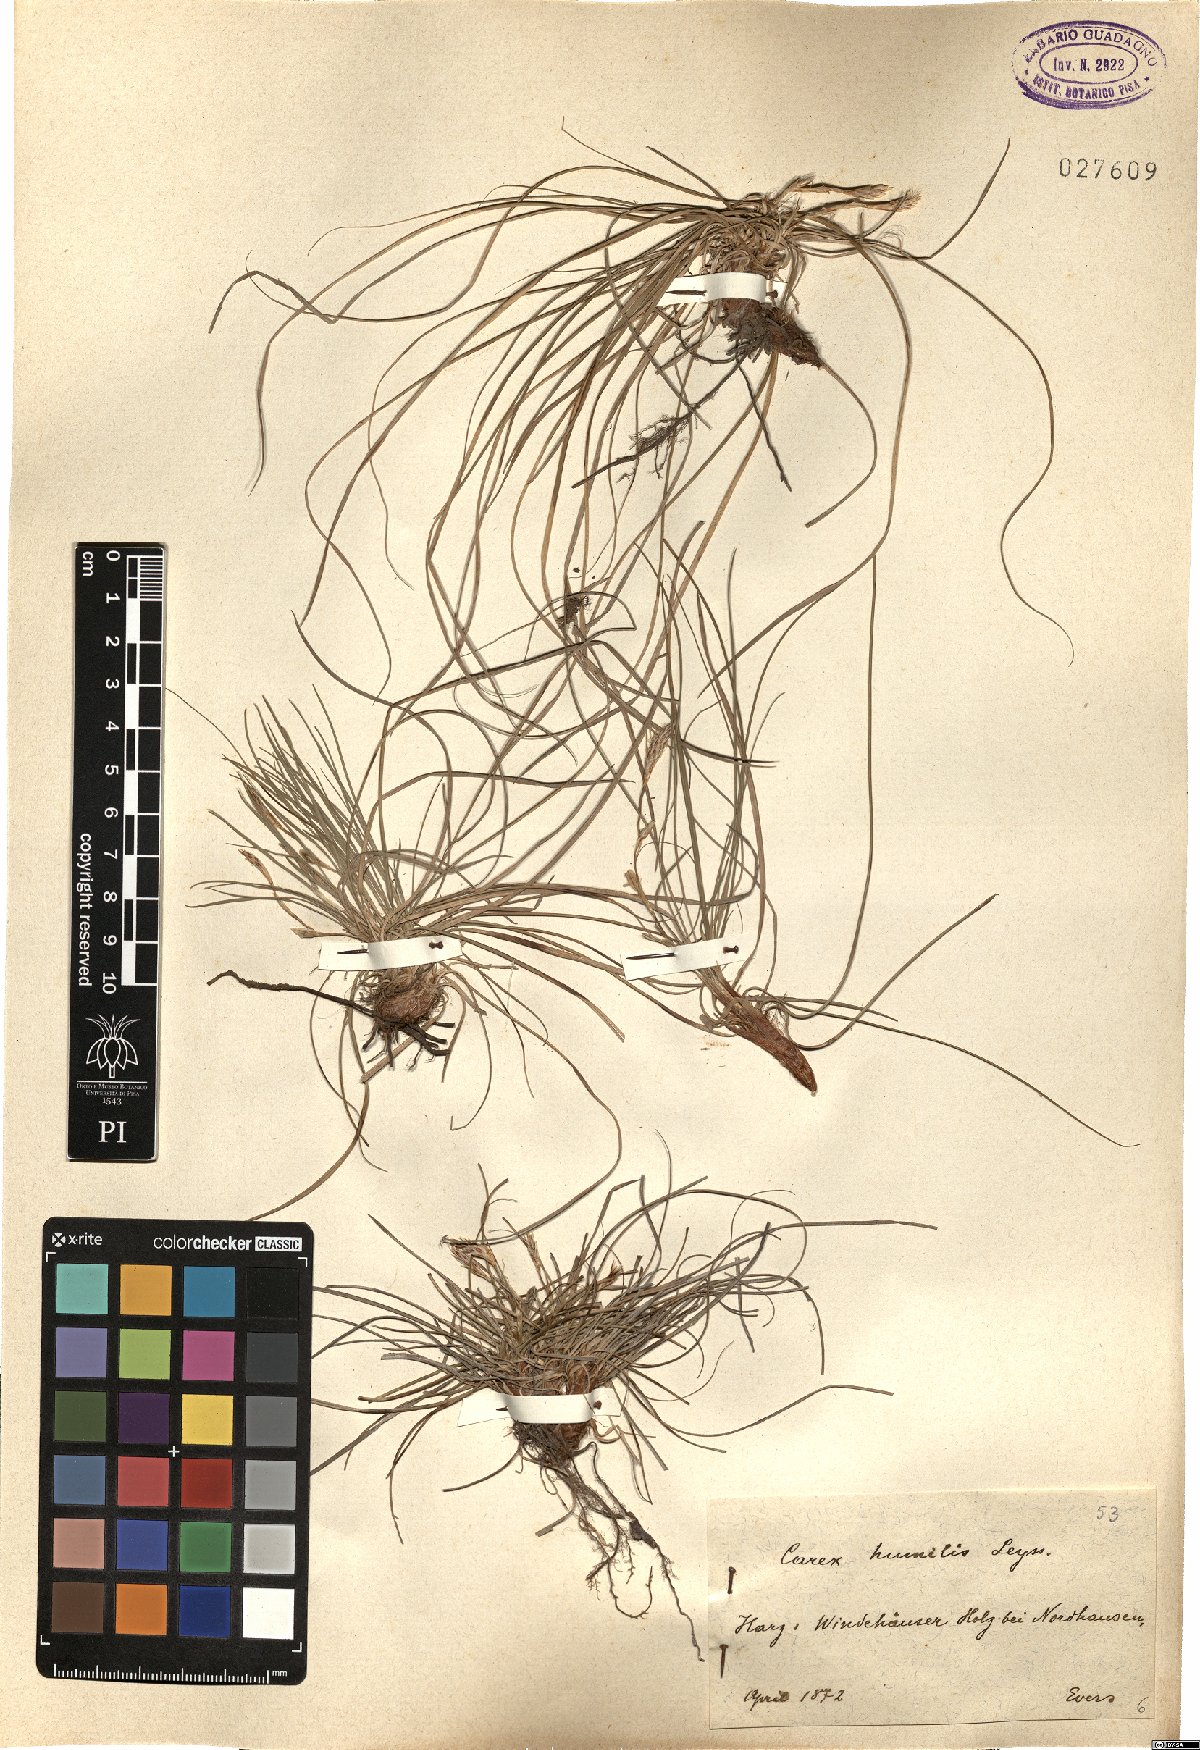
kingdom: Plantae
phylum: Tracheophyta
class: Liliopsida
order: Poales
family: Cyperaceae
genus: Carex
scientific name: Carex humilis
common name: Dwarf sedge
